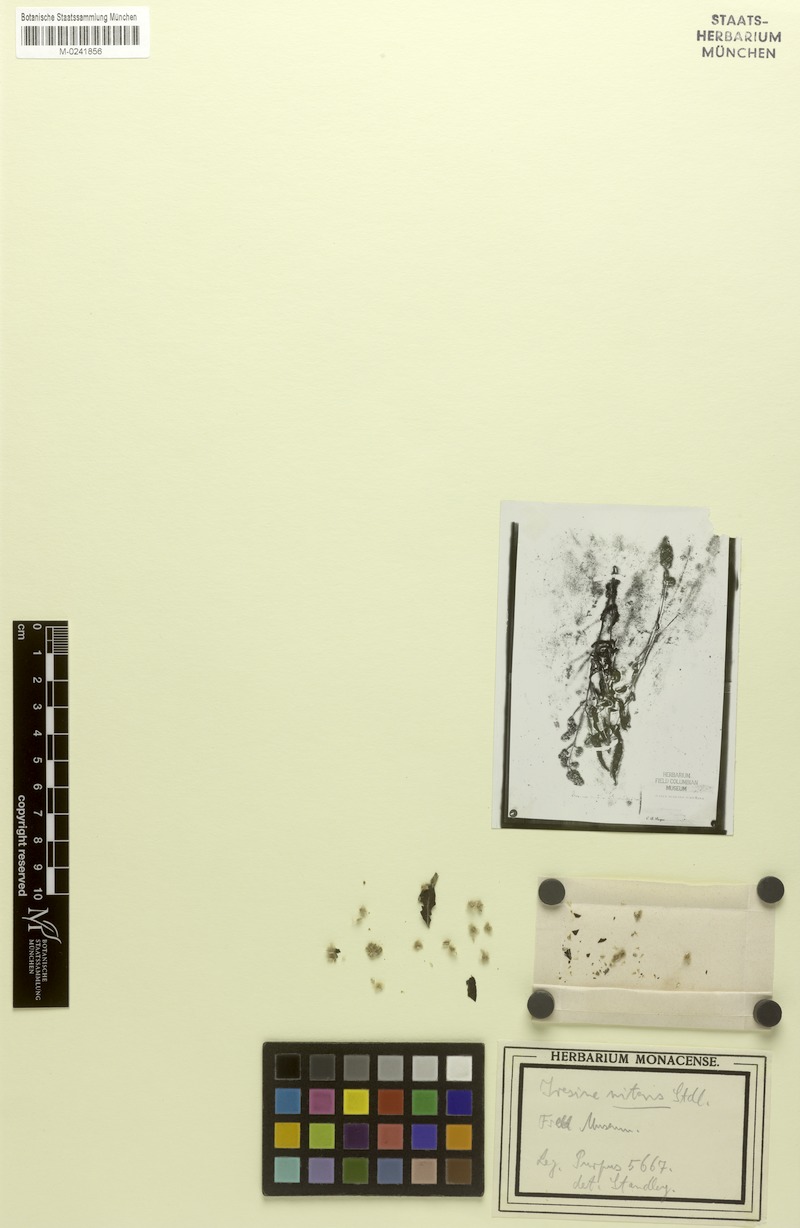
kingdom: Plantae
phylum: Tracheophyta
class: Magnoliopsida
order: Caryophyllales
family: Amaranthaceae
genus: Iresine
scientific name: Iresine schaffneri
